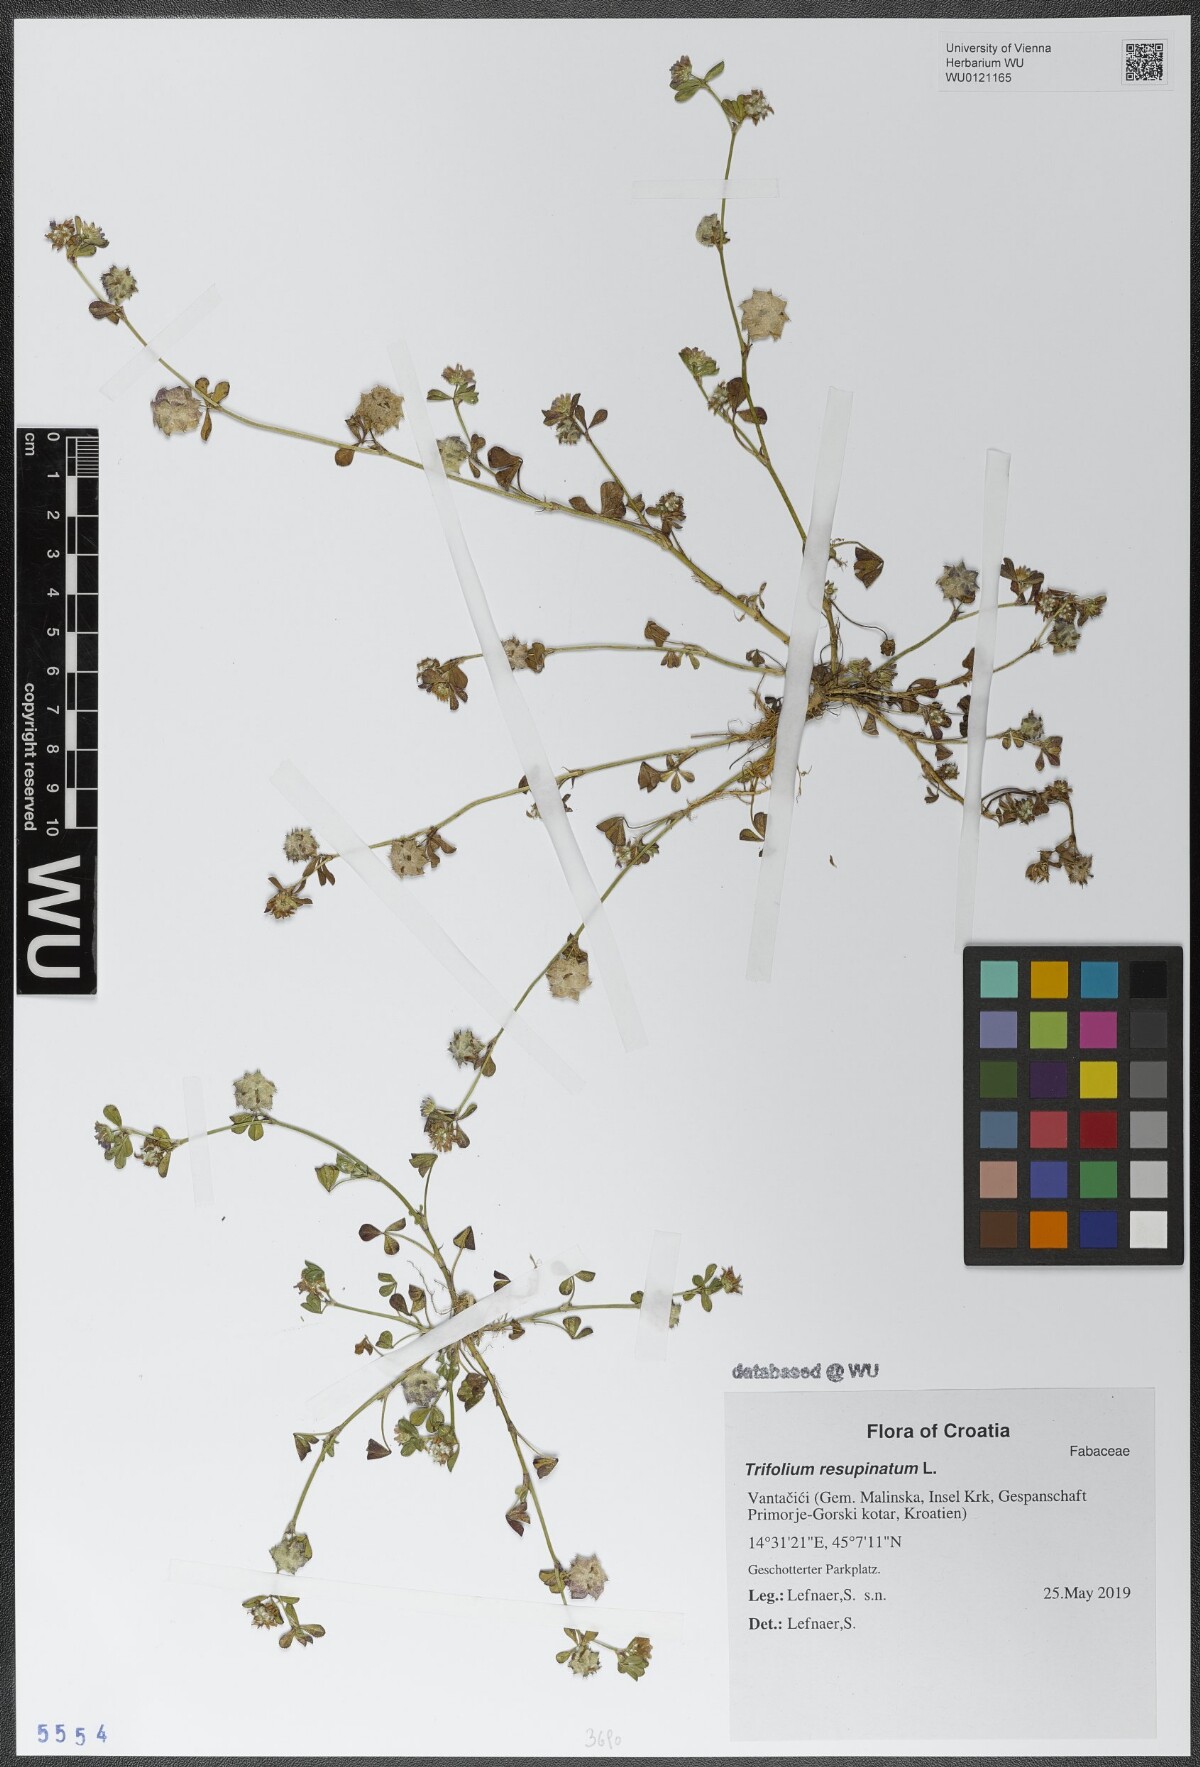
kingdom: Plantae
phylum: Tracheophyta
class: Magnoliopsida
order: Fabales
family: Fabaceae
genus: Trifolium
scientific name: Trifolium resupinatum
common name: Reversed clover
